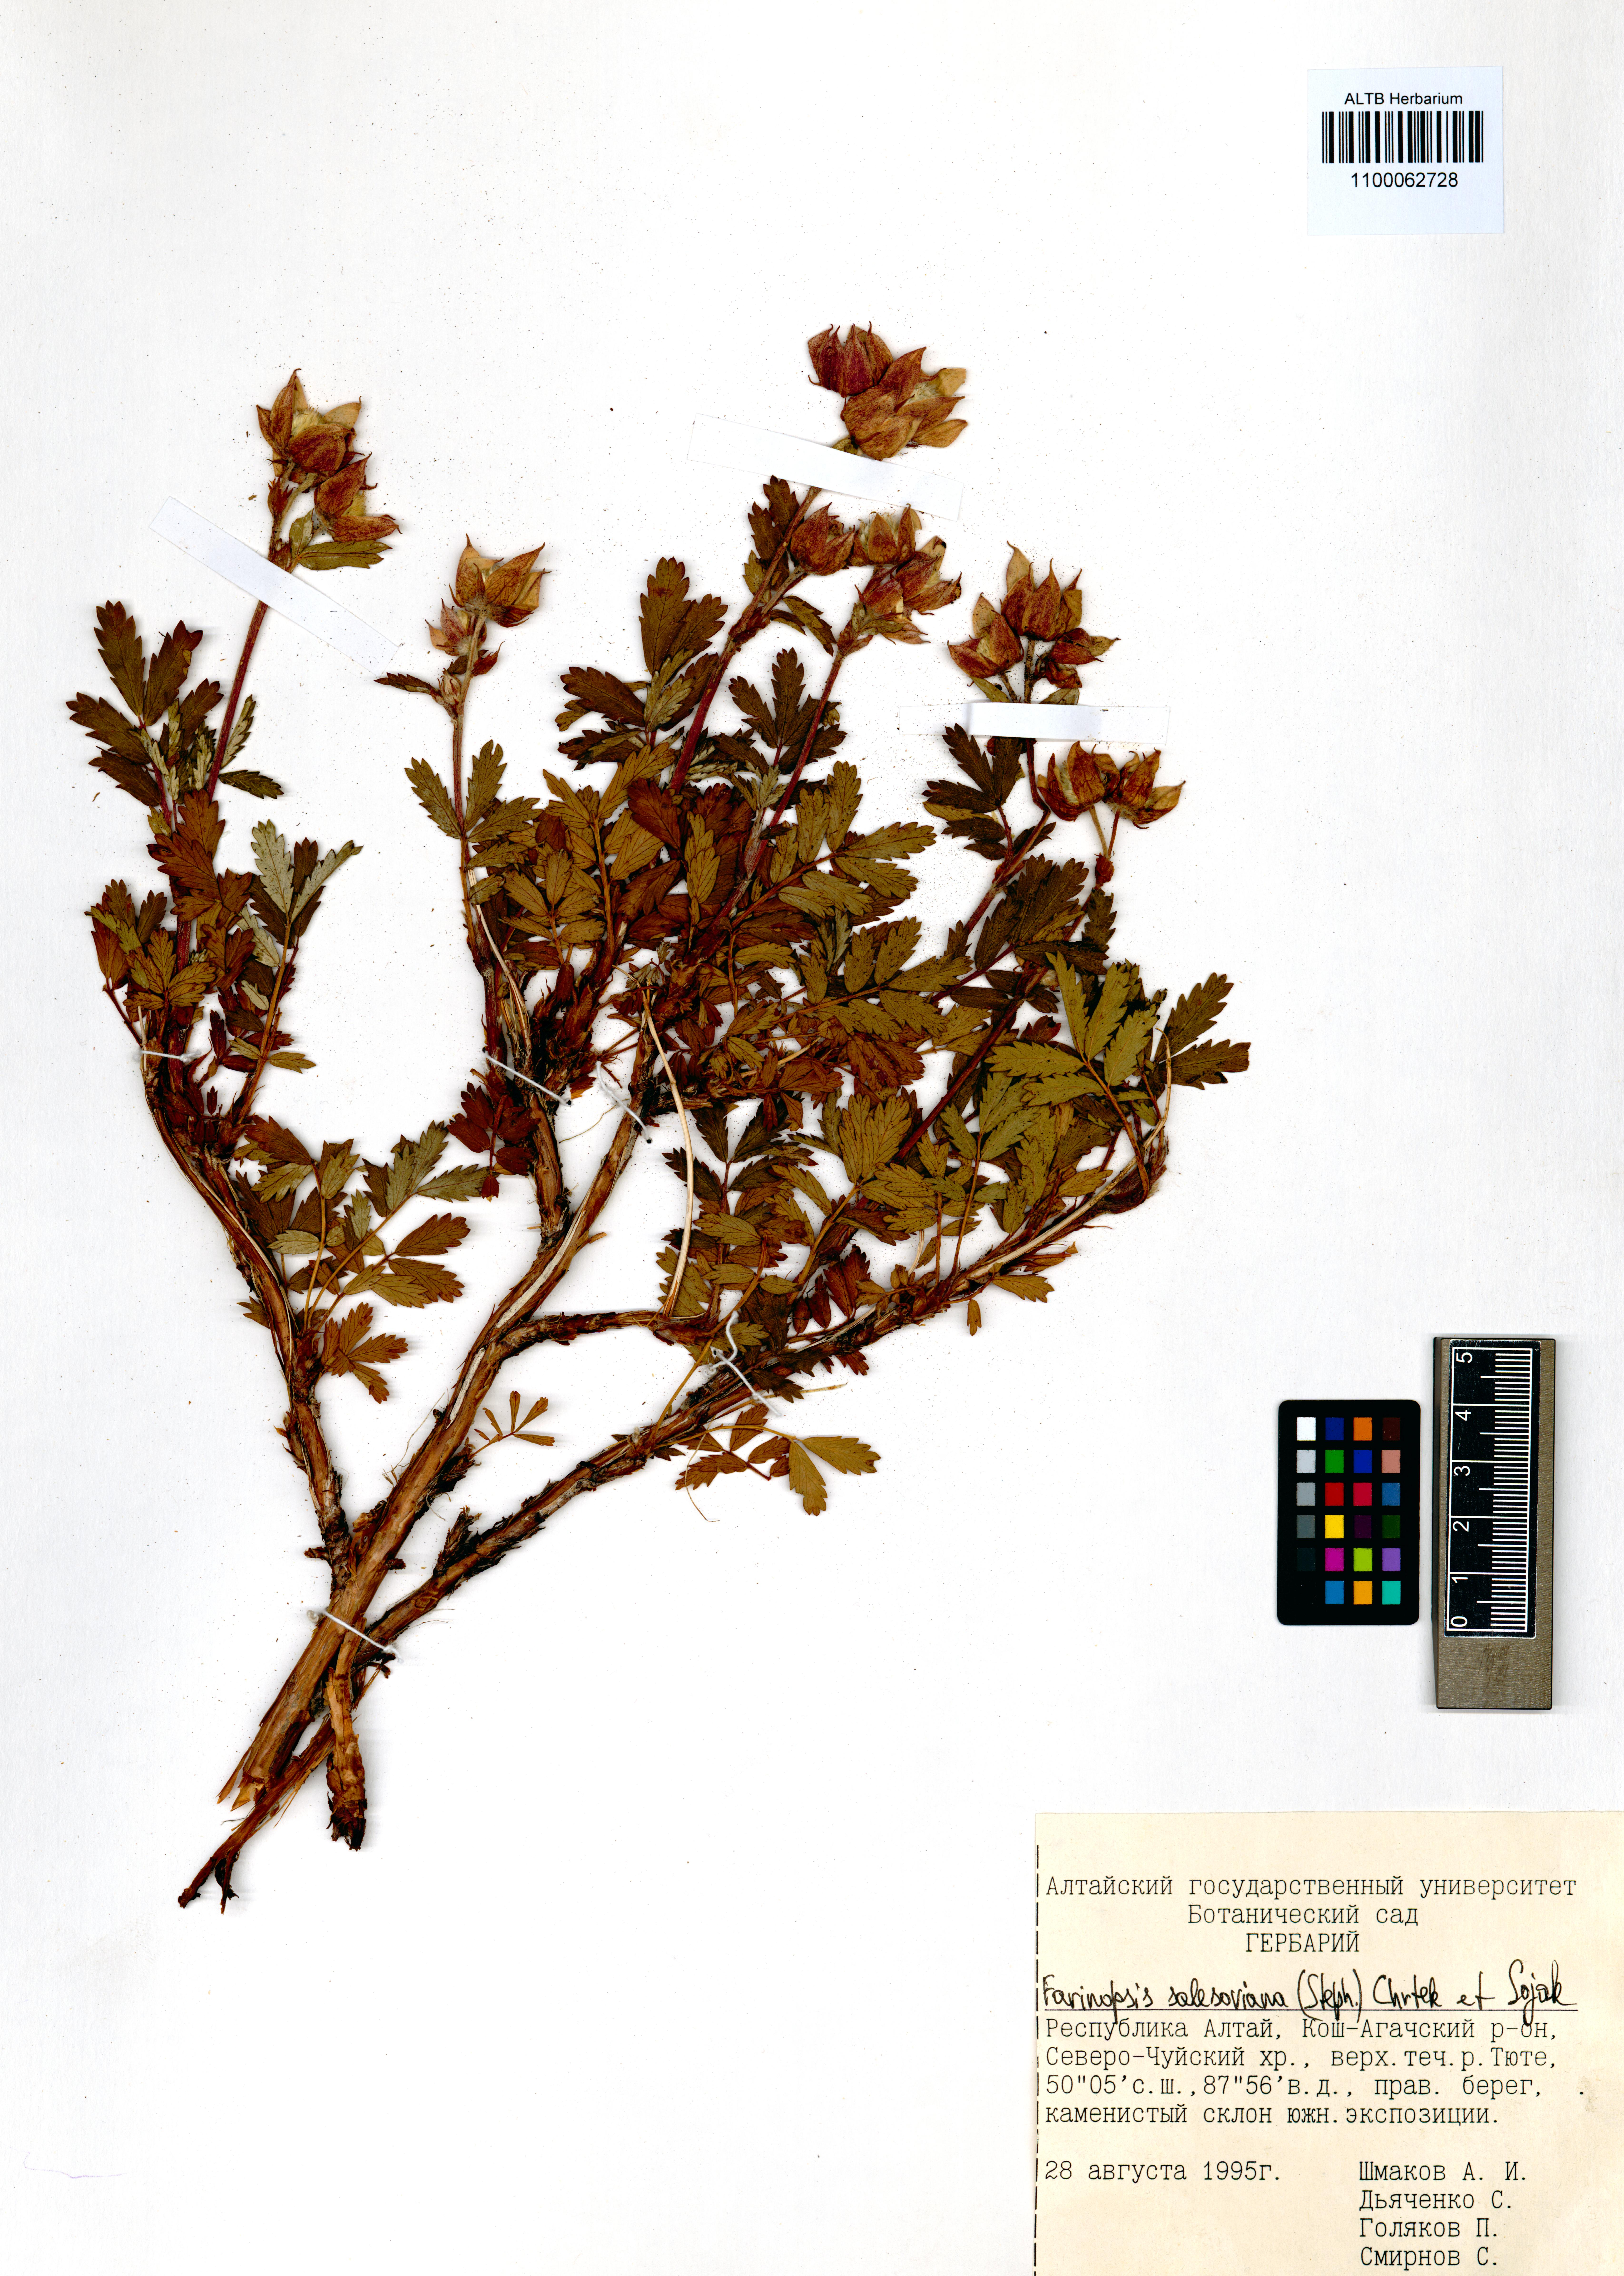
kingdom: Plantae
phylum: Tracheophyta
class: Magnoliopsida
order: Rosales
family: Rosaceae
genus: Farinopsis
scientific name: Farinopsis salesoviana
